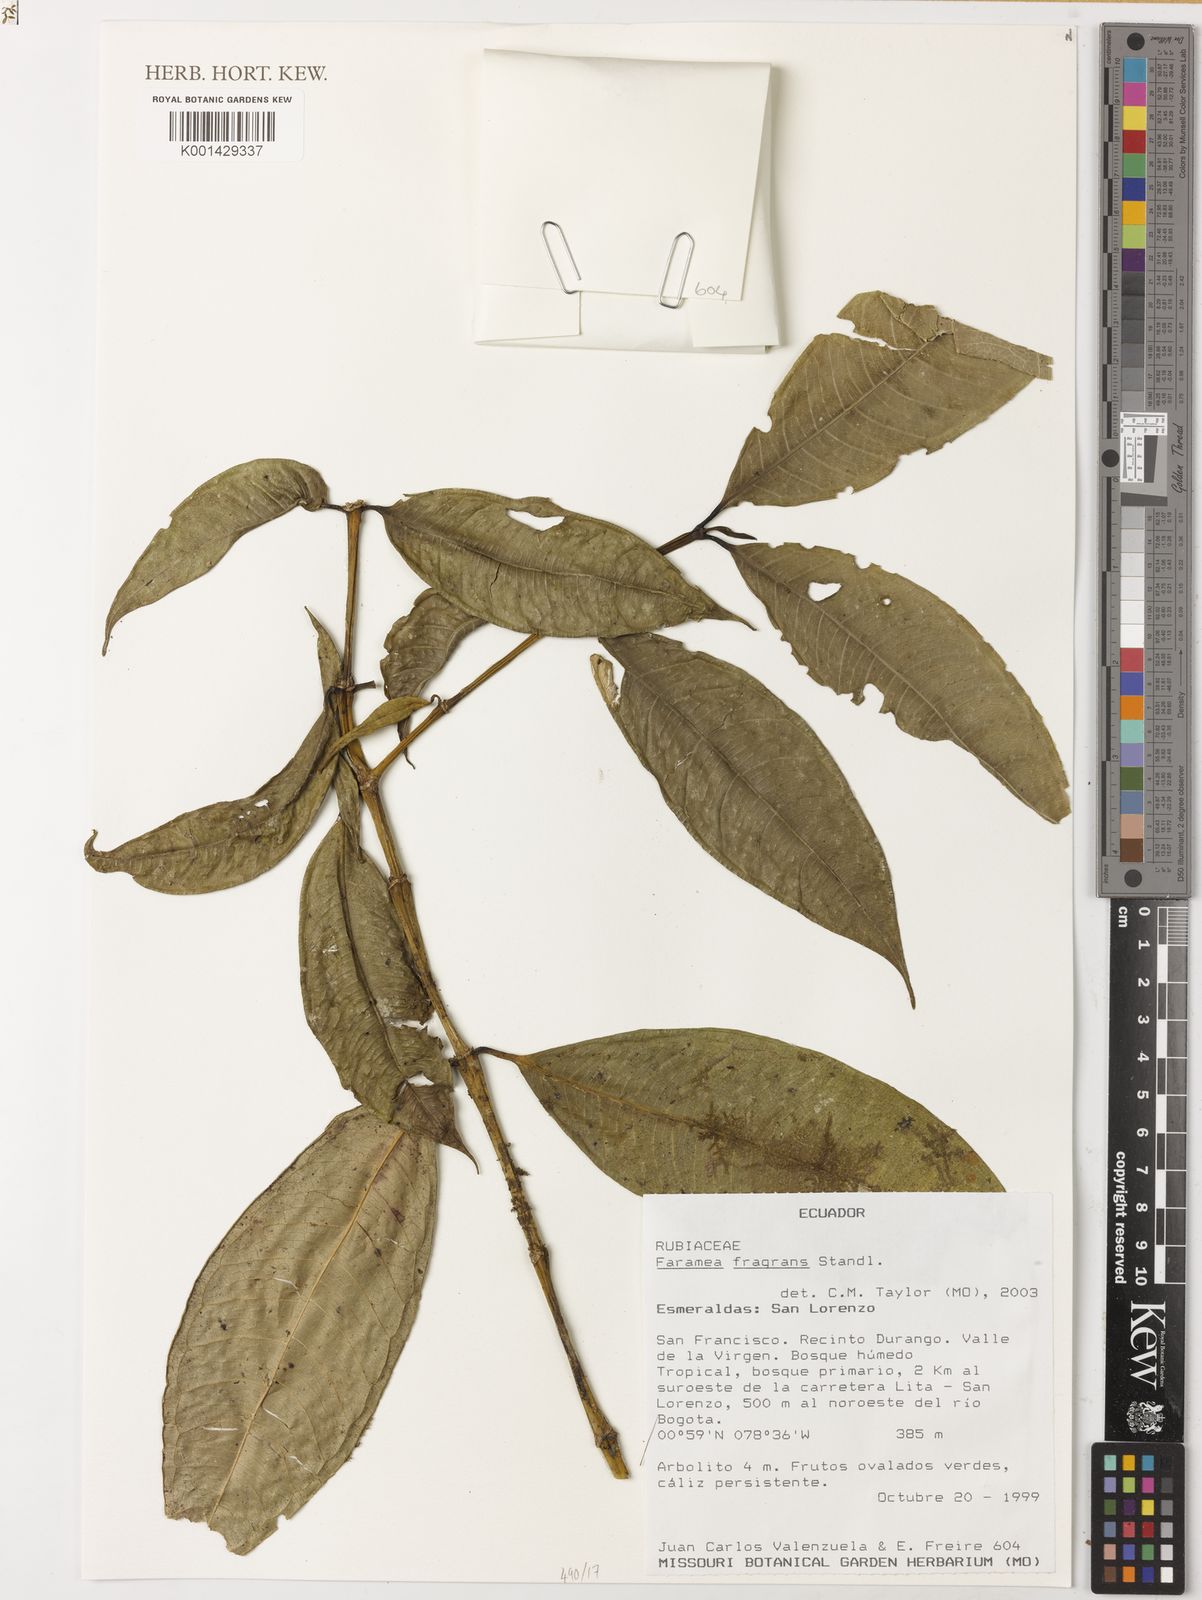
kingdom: Plantae
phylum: Tracheophyta
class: Magnoliopsida
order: Gentianales
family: Rubiaceae
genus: Faramea
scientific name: Faramea fragrans
